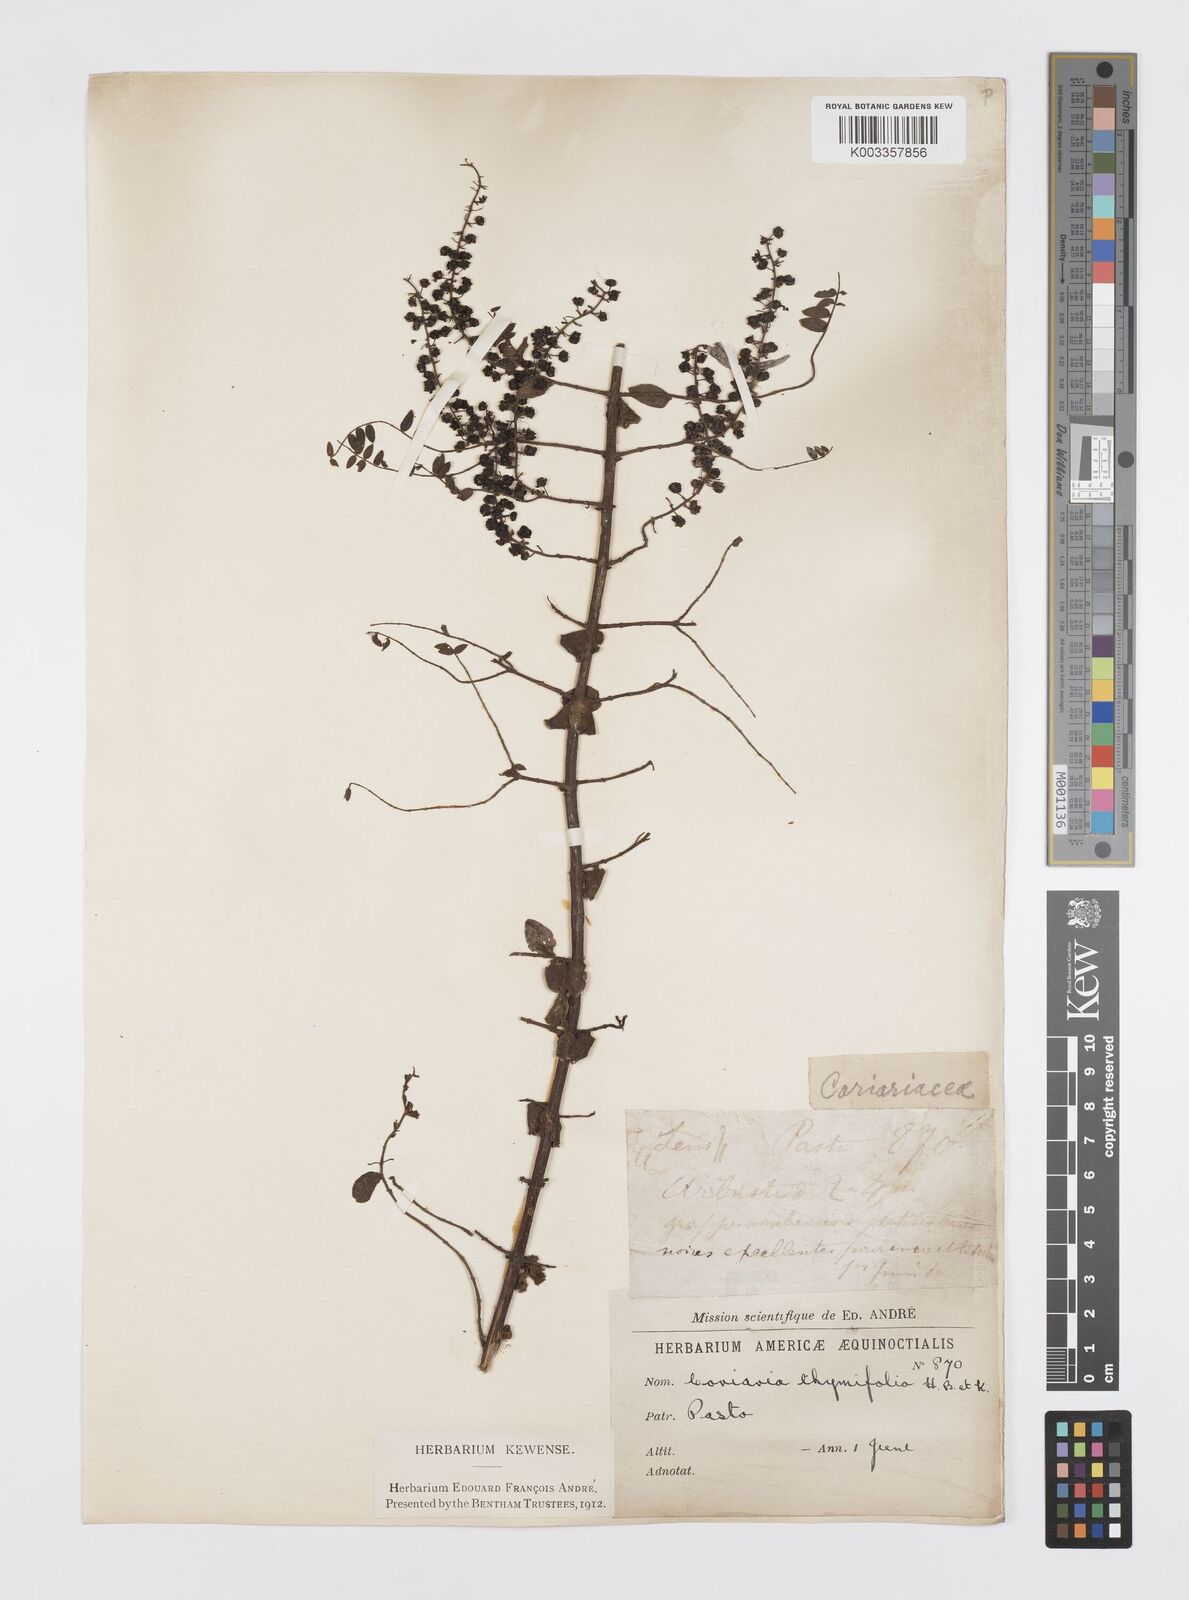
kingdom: Plantae
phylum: Tracheophyta
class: Magnoliopsida
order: Cucurbitales
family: Coriariaceae
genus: Coriaria
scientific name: Coriaria microphylla
